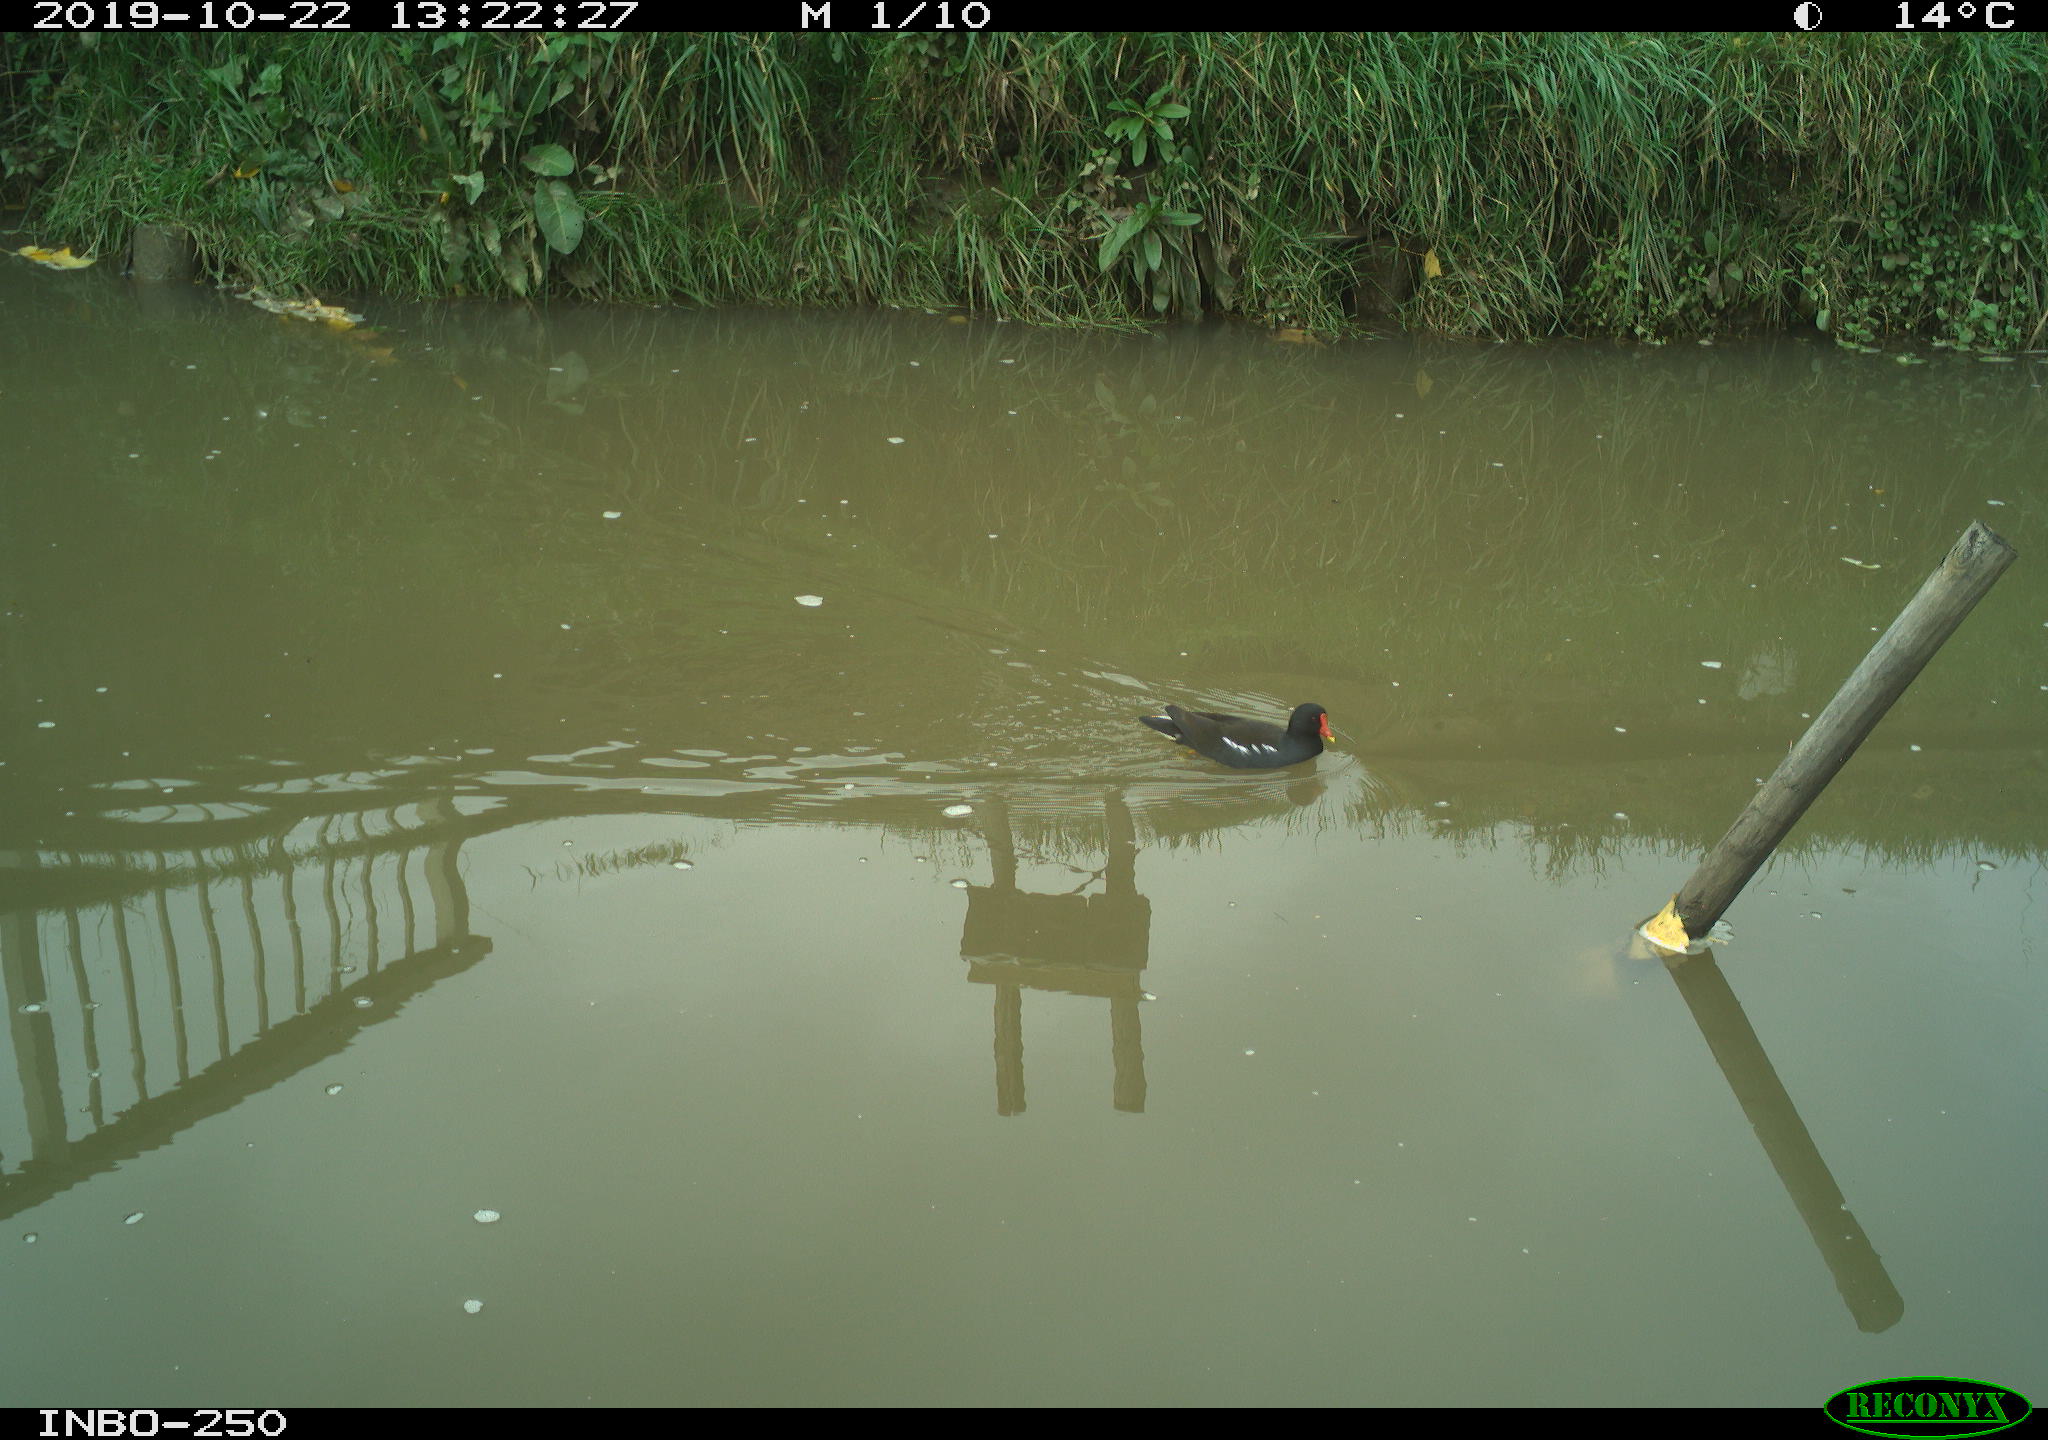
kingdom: Animalia
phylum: Chordata
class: Aves
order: Gruiformes
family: Rallidae
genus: Gallinula
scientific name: Gallinula chloropus
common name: Common moorhen
